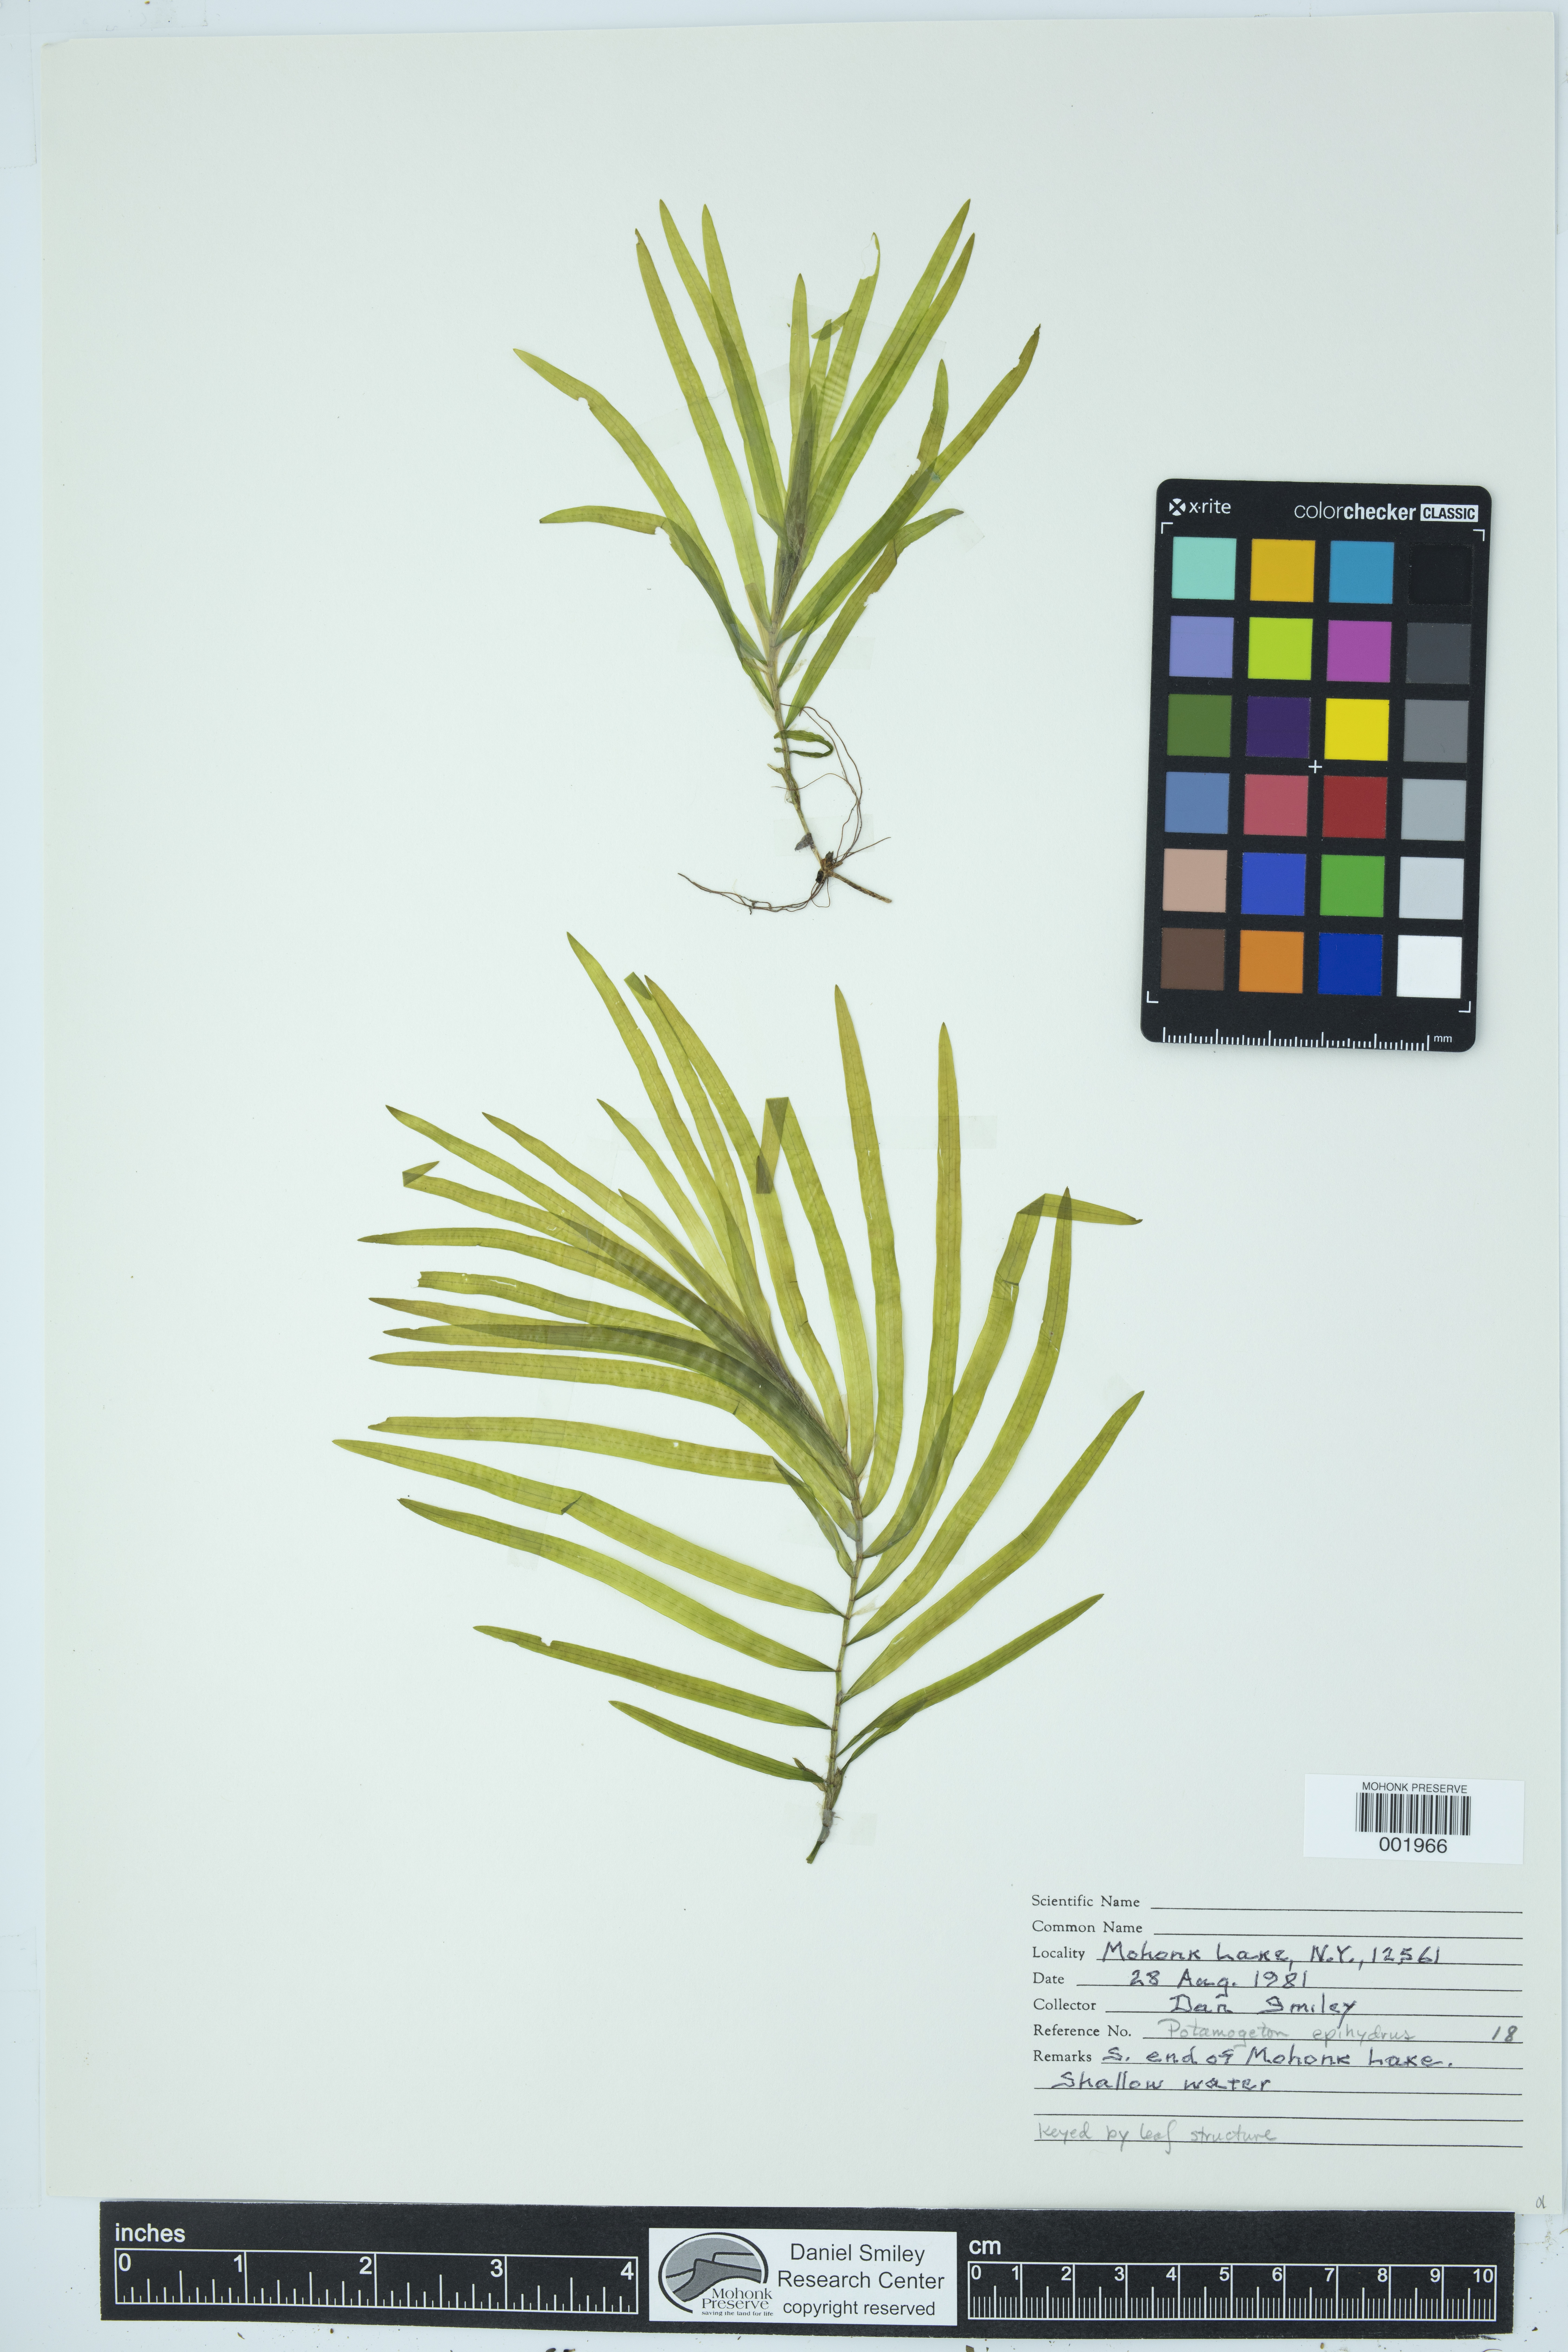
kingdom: Plantae
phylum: Tracheophyta
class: Liliopsida
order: Alismatales
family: Potamogetonaceae
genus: Potamogeton
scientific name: Potamogeton epihydrus
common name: American pondweed
